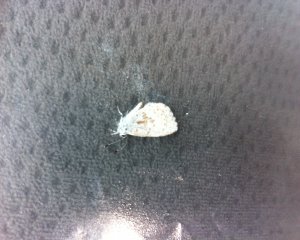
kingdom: Animalia
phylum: Arthropoda
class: Insecta
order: Lepidoptera
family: Lycaenidae
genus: Celastrina
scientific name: Celastrina
